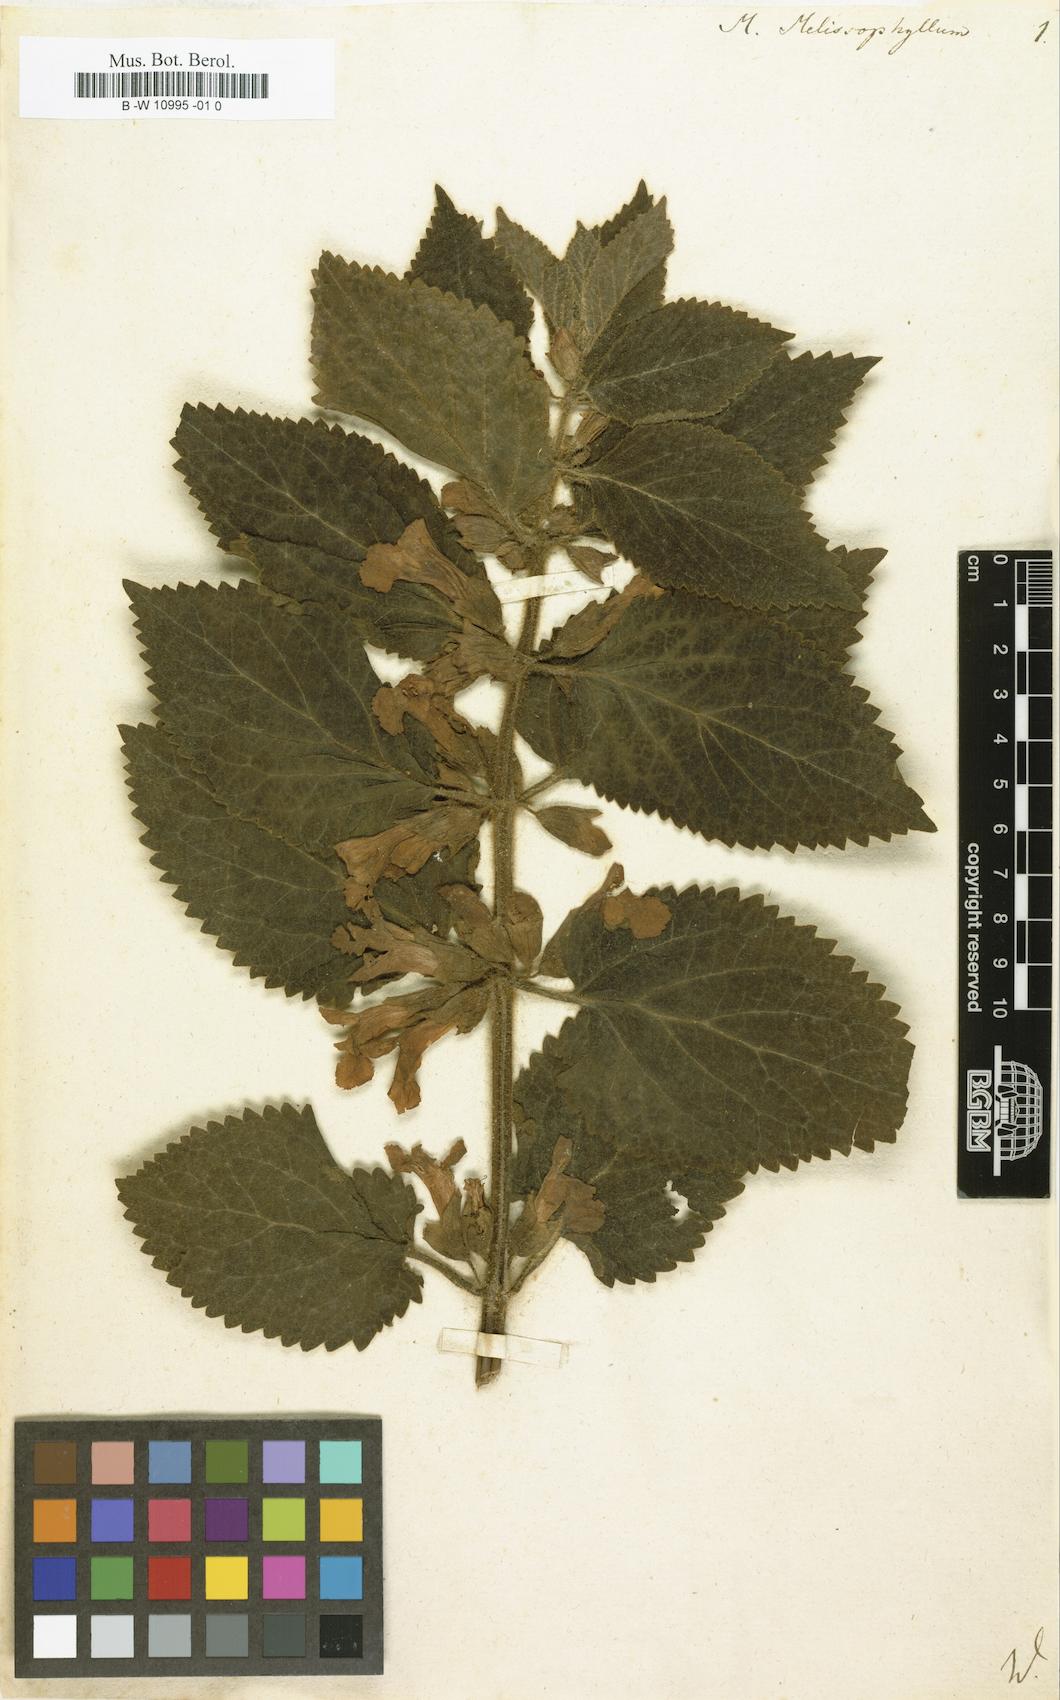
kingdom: Plantae
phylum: Tracheophyta
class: Magnoliopsida
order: Lamiales
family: Lamiaceae
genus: Melittis
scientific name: Melittis melissophyllum
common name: Bastard balm
